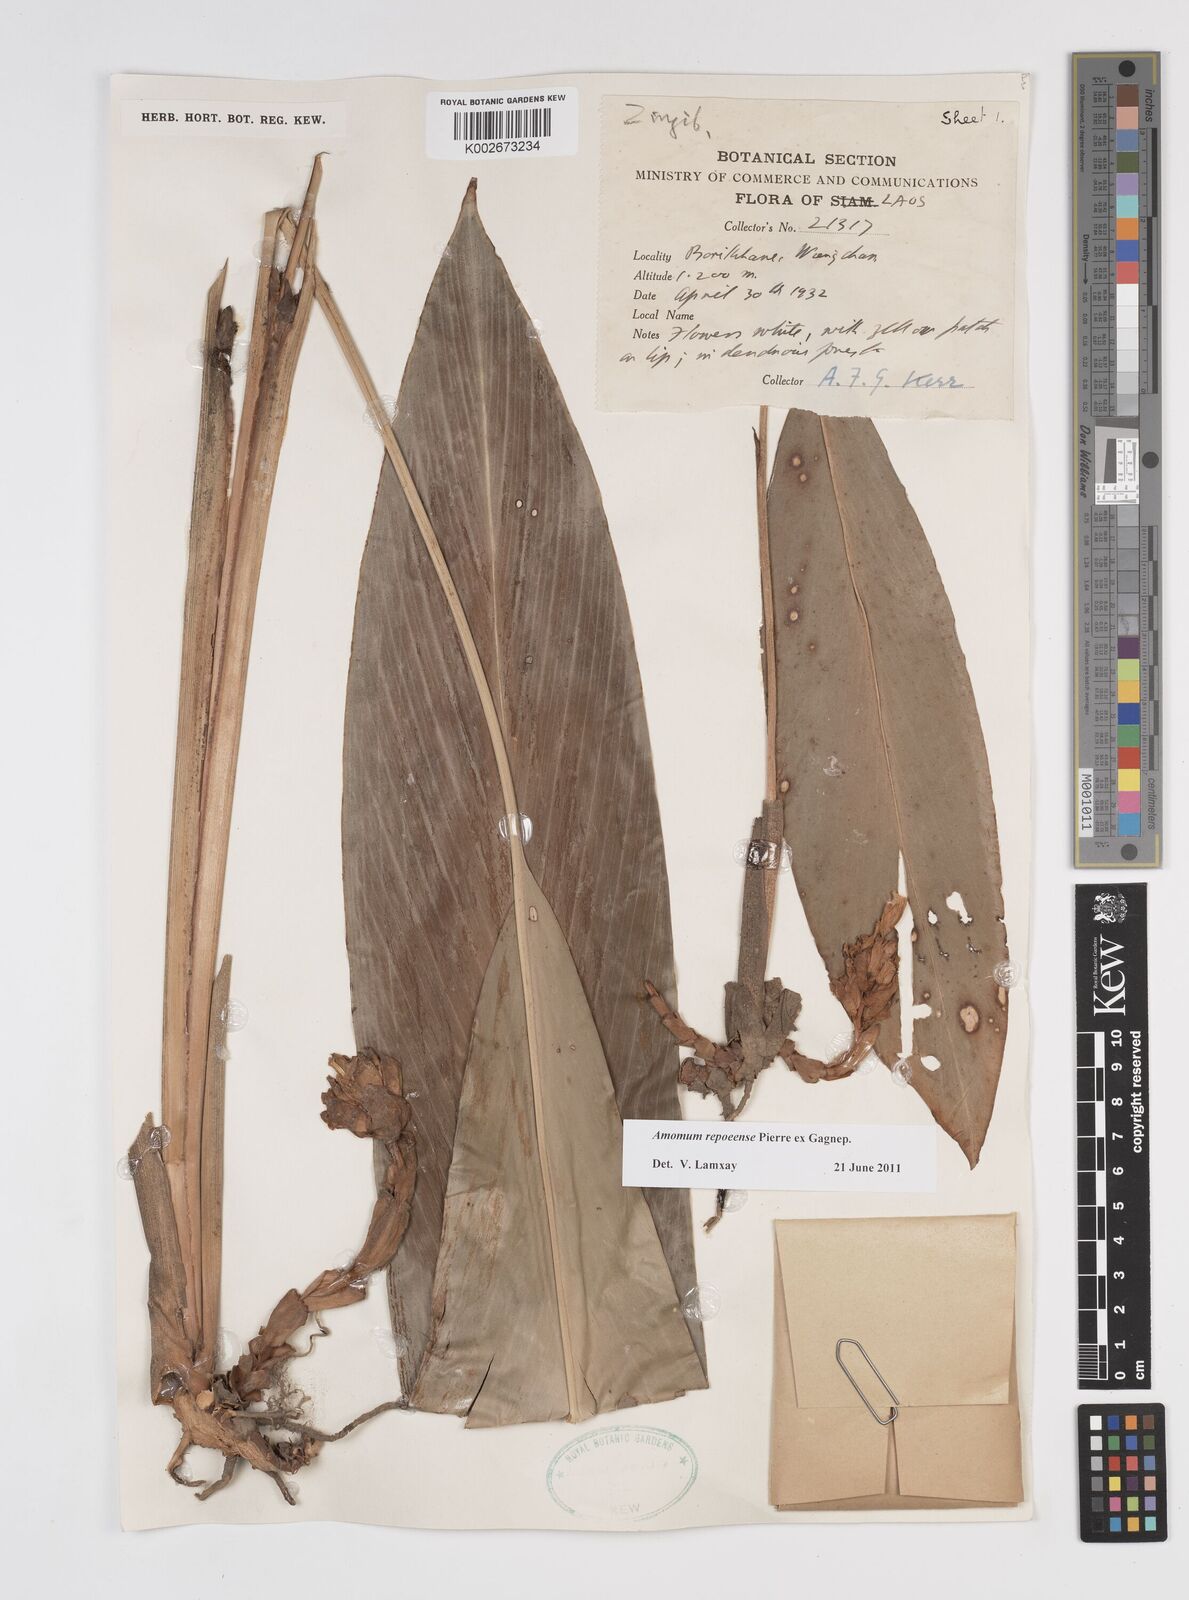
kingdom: Plantae
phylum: Tracheophyta
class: Liliopsida
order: Zingiberales
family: Zingiberaceae
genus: Amomum
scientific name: Amomum repoeense
